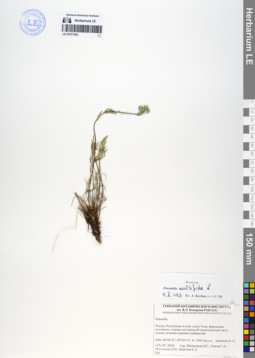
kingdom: Plantae
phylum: Tracheophyta
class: Magnoliopsida
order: Rosales
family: Rosaceae
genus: Potentilla
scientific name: Potentilla multifida
